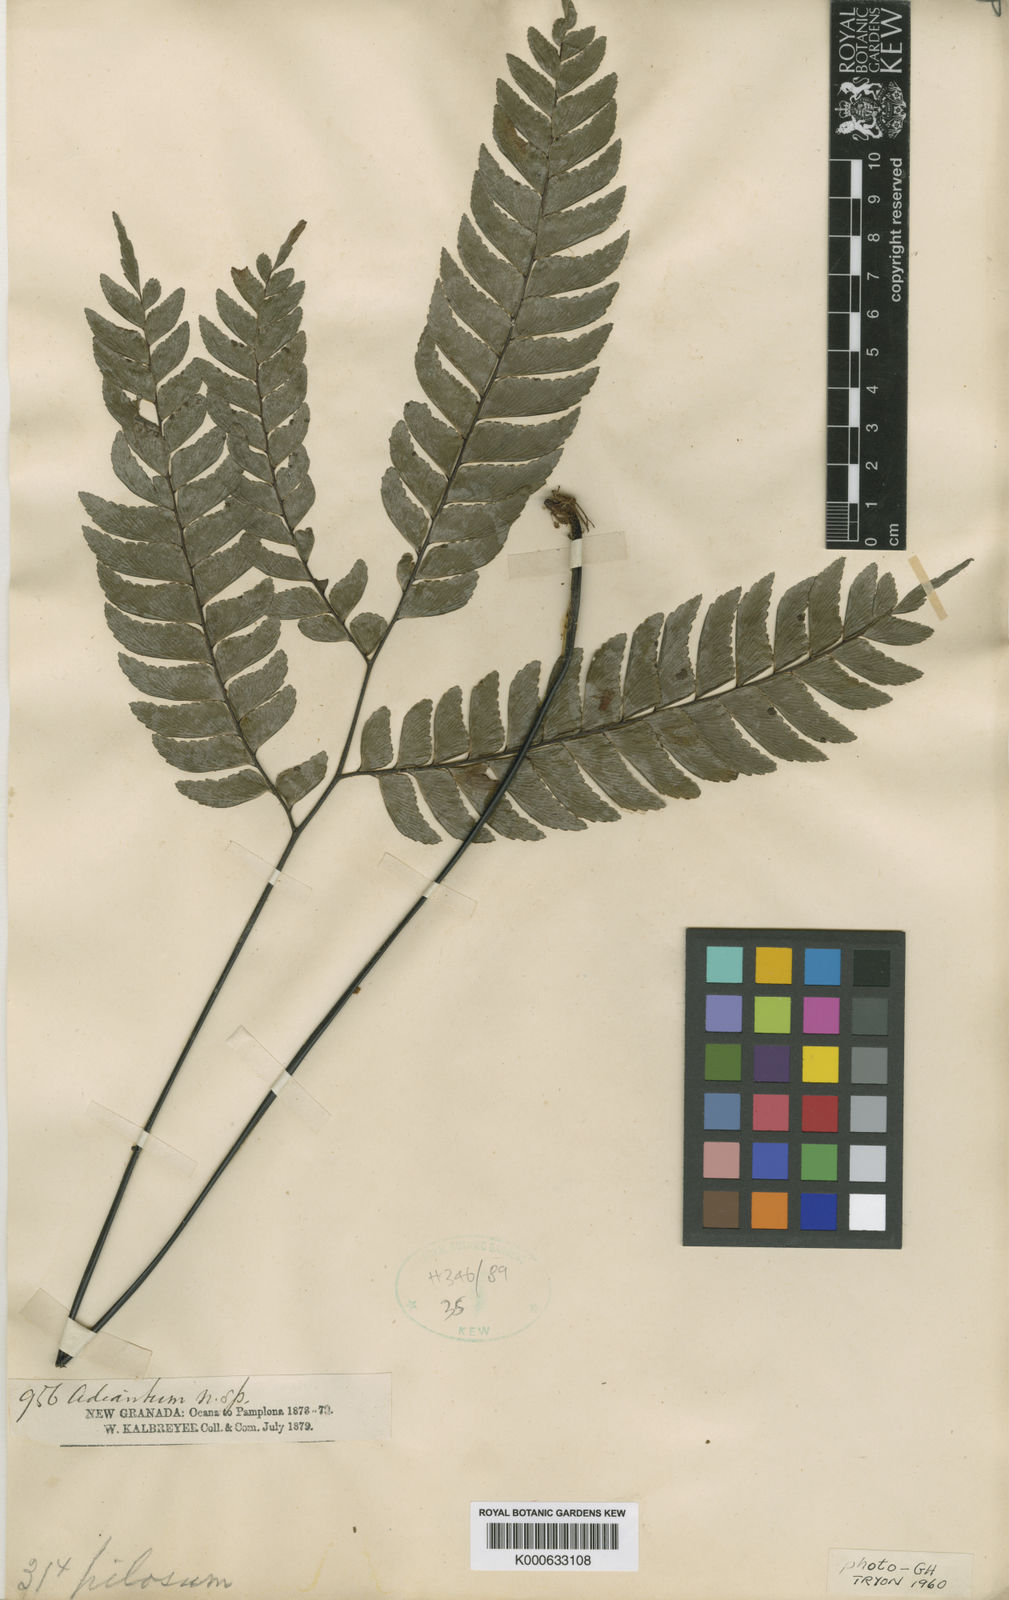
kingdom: Plantae
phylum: Tracheophyta
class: Polypodiopsida
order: Polypodiales
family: Pteridaceae
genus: Adiantum
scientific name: Adiantum
